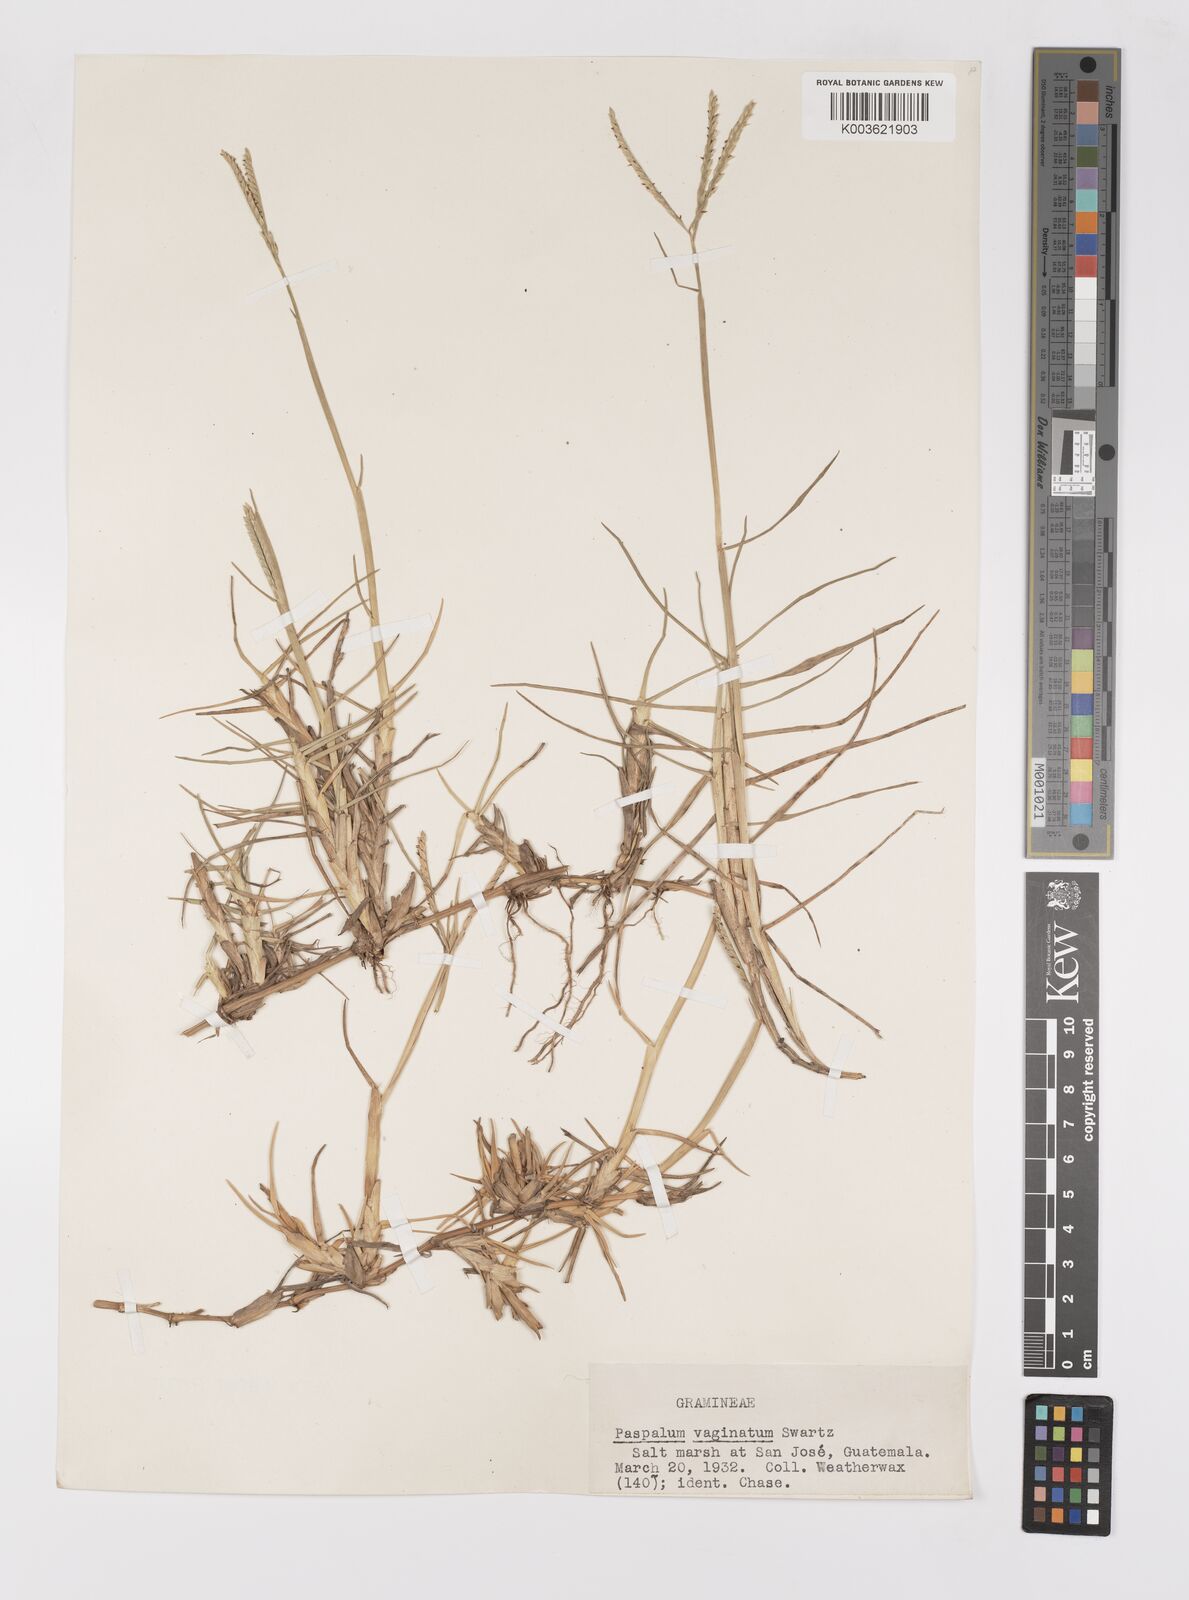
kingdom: Plantae
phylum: Tracheophyta
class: Liliopsida
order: Poales
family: Poaceae
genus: Paspalum
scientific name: Paspalum vaginatum
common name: Seashore paspalum
